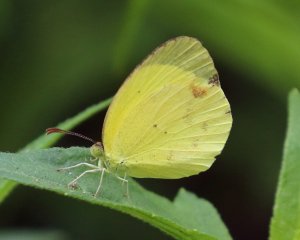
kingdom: Animalia
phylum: Arthropoda
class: Insecta
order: Lepidoptera
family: Pieridae
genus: Pyrisitia
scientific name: Pyrisitia nise
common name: Mimosa Yellow
